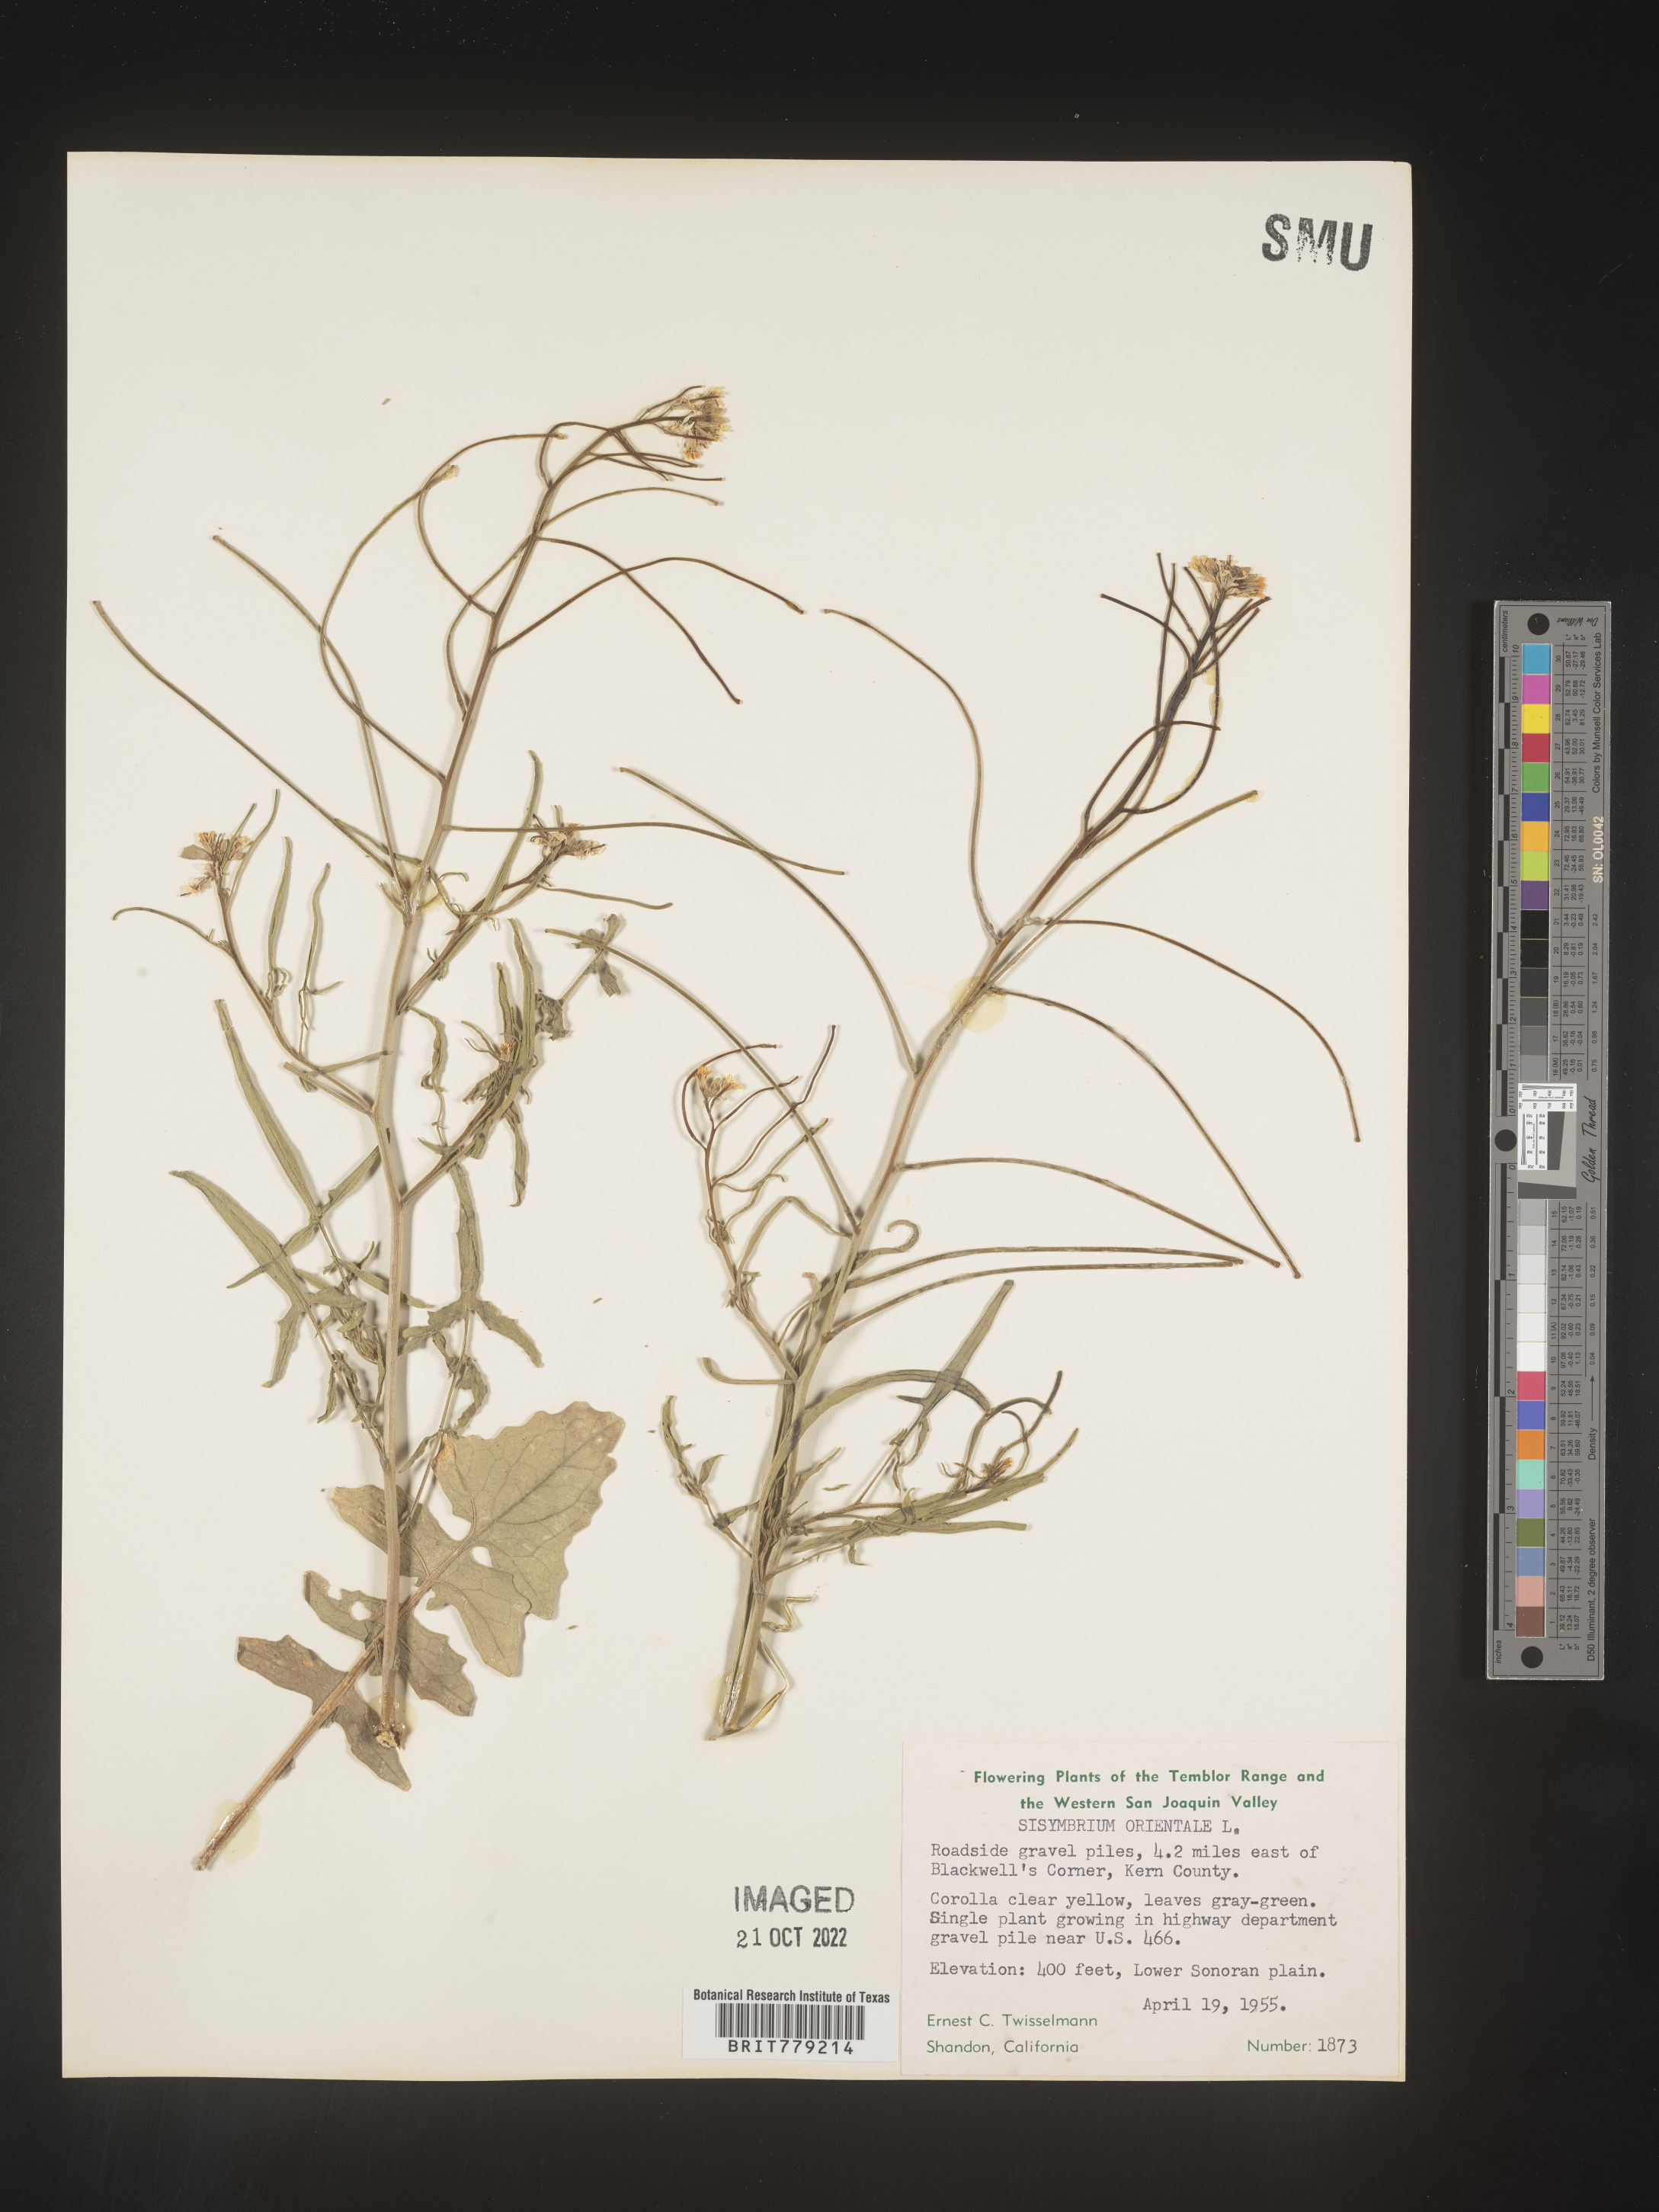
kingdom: Plantae
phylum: Tracheophyta
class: Magnoliopsida
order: Brassicales
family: Brassicaceae
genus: Sisymbrium
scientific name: Sisymbrium orientale
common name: Eastern rocket
